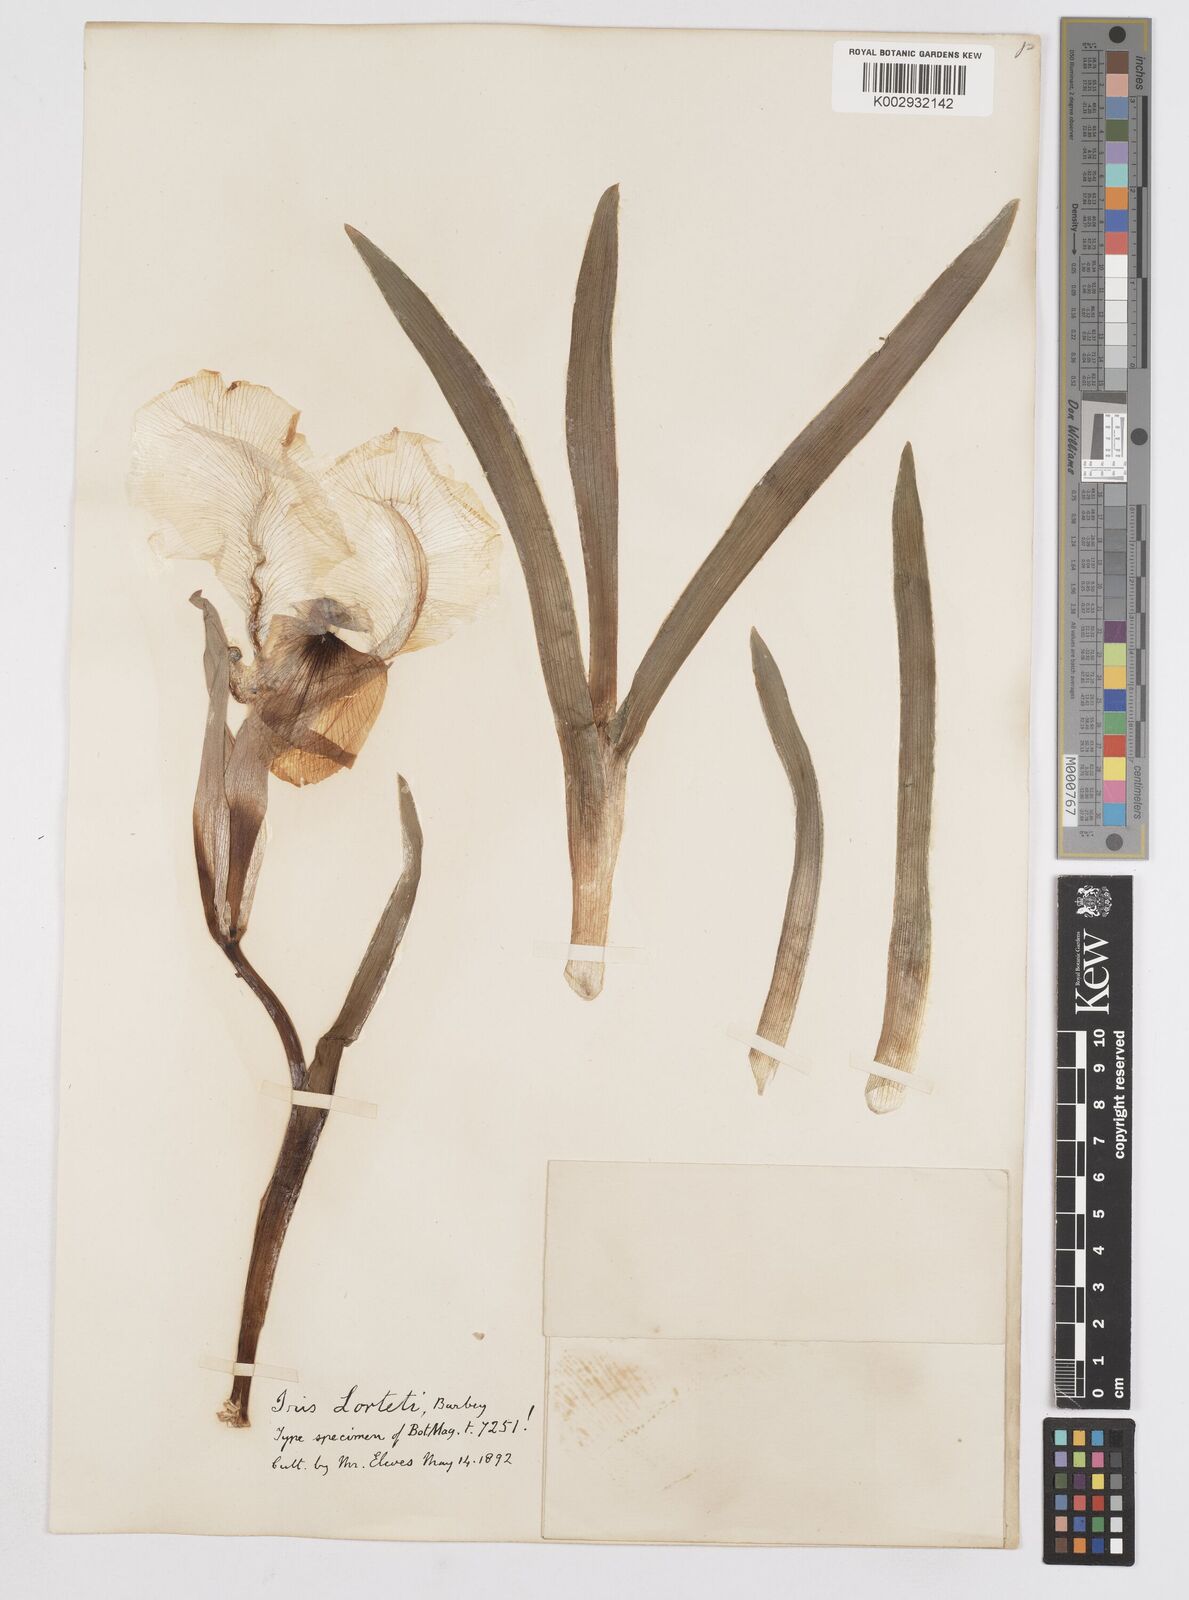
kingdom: Plantae
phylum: Tracheophyta
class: Liliopsida
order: Asparagales
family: Iridaceae
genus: Iris
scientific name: Iris lortetii
